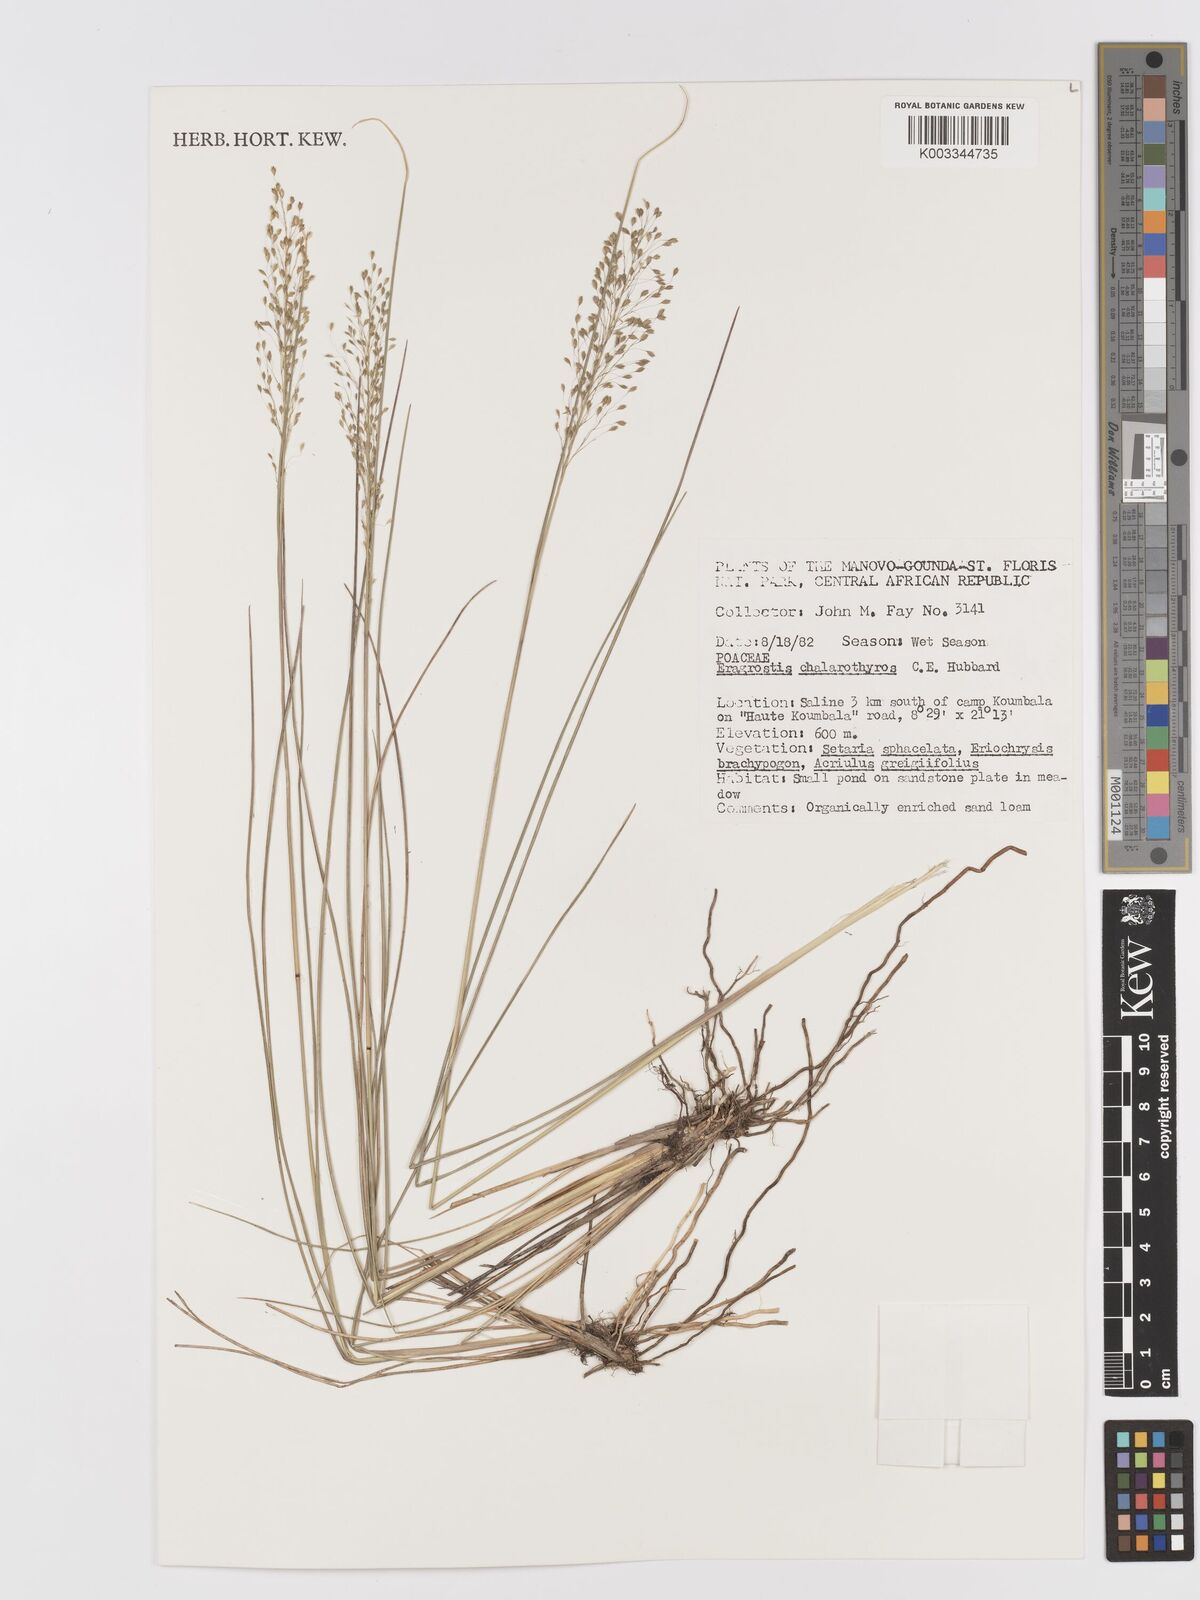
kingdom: Plantae
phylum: Tracheophyta
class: Liliopsida
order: Poales
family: Poaceae
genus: Eragrostis
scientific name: Eragrostis chalarothyrsos
